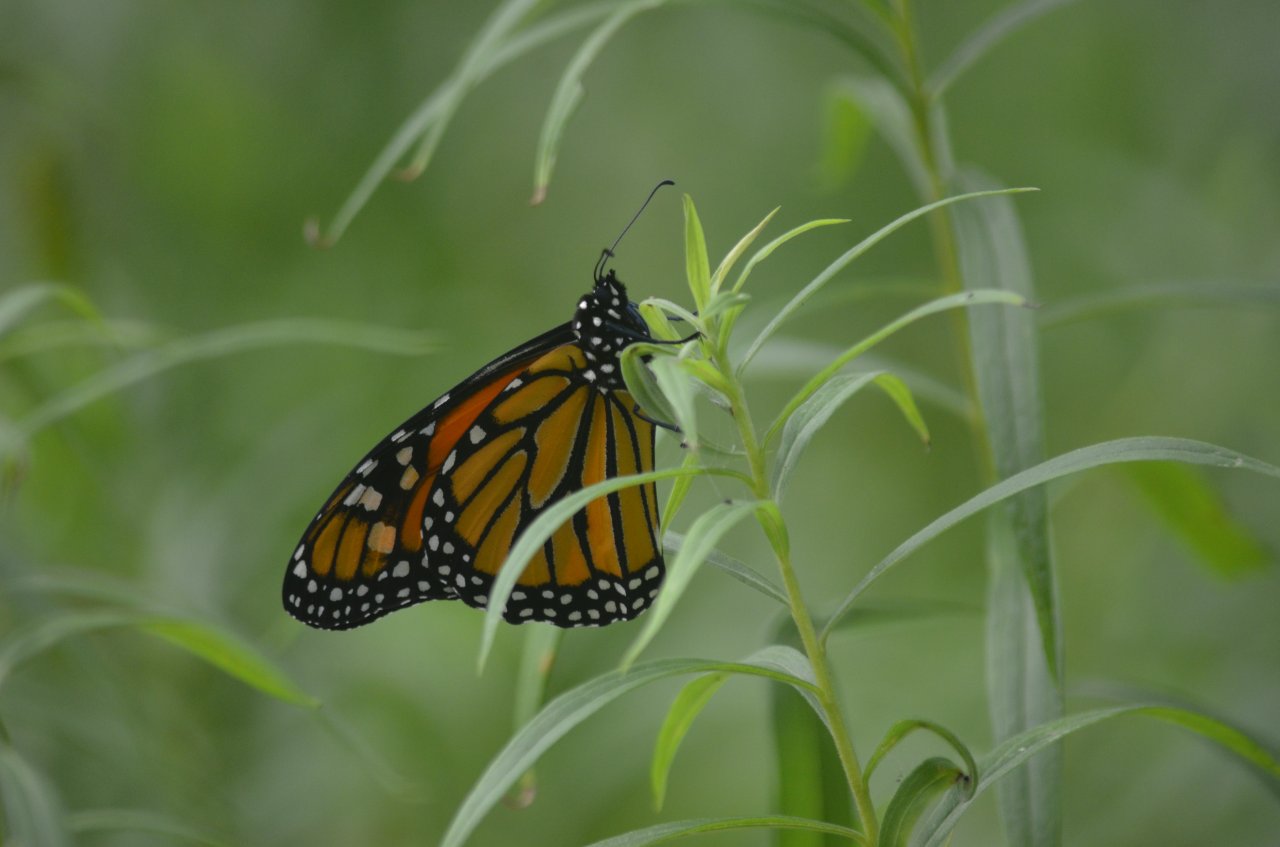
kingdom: Animalia
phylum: Arthropoda
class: Insecta
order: Lepidoptera
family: Nymphalidae
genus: Danaus
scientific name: Danaus plexippus
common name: Monarch
